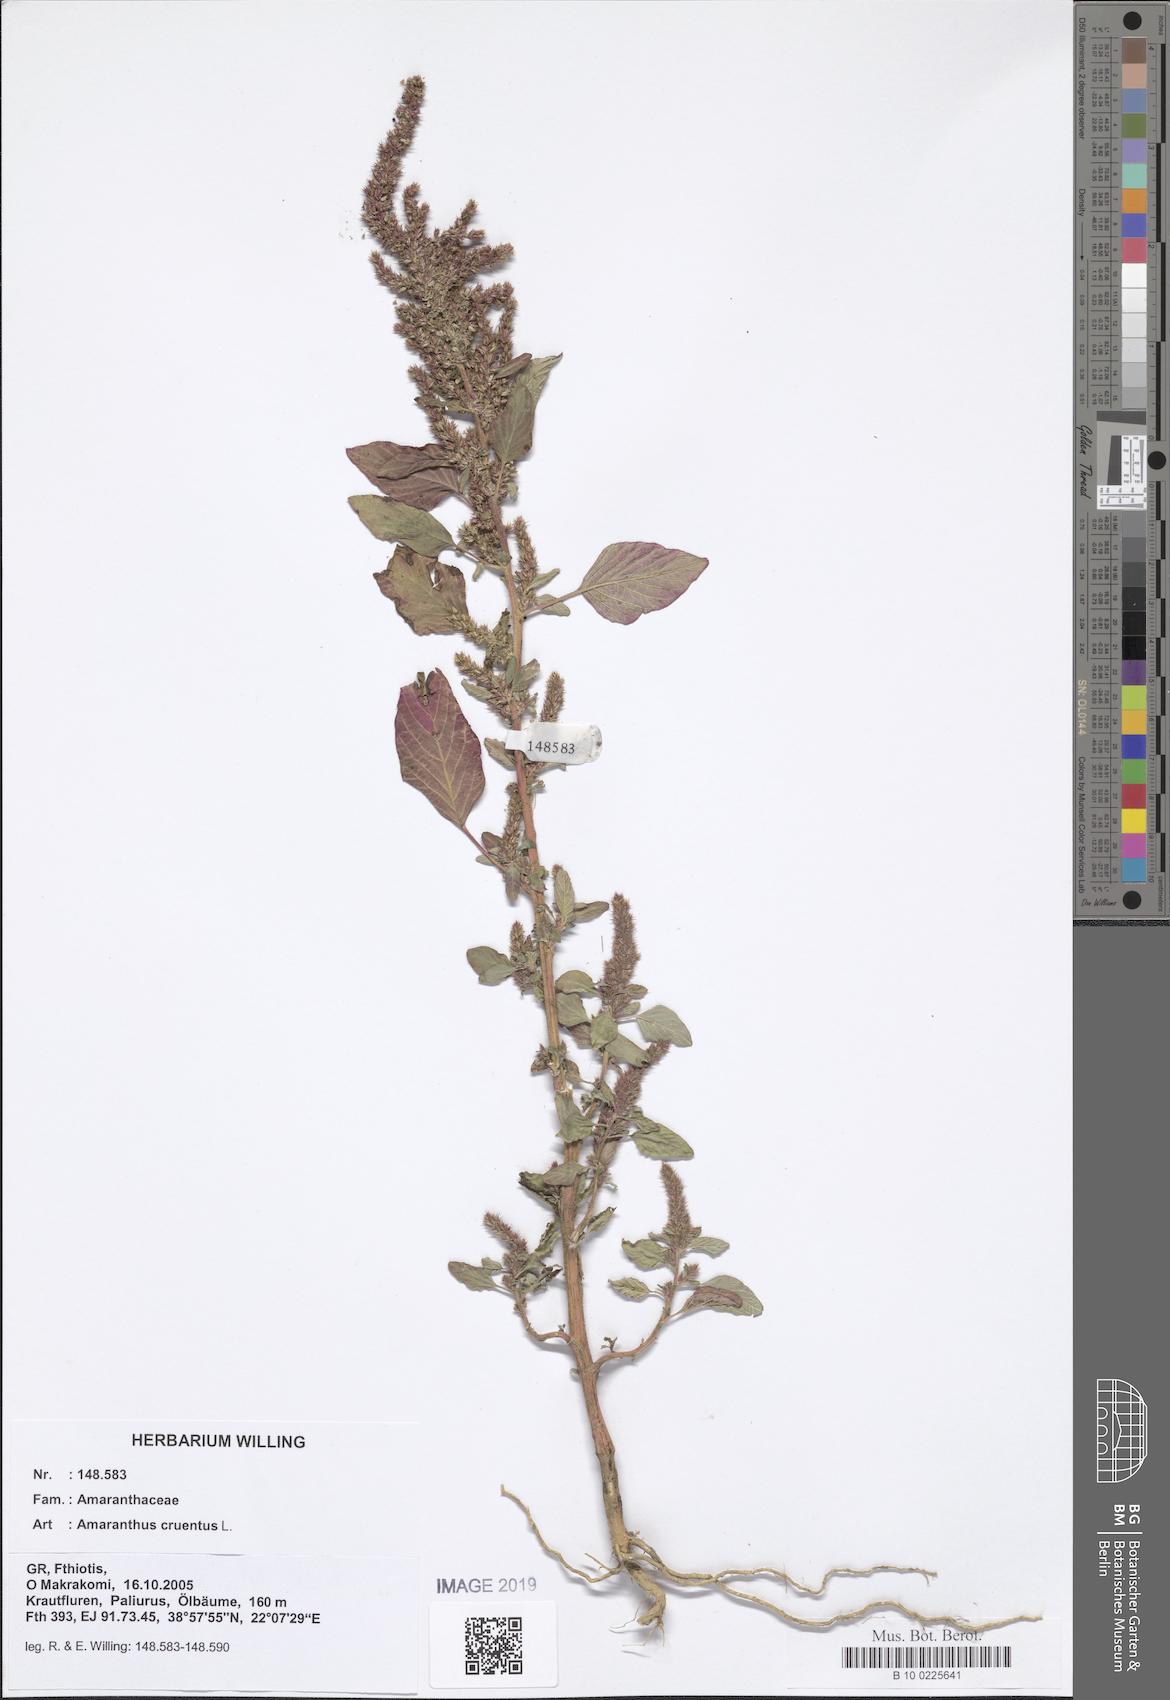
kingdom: Plantae
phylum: Tracheophyta
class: Magnoliopsida
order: Caryophyllales
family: Amaranthaceae
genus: Amaranthus
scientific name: Amaranthus cruentus
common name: Purple amaranth
